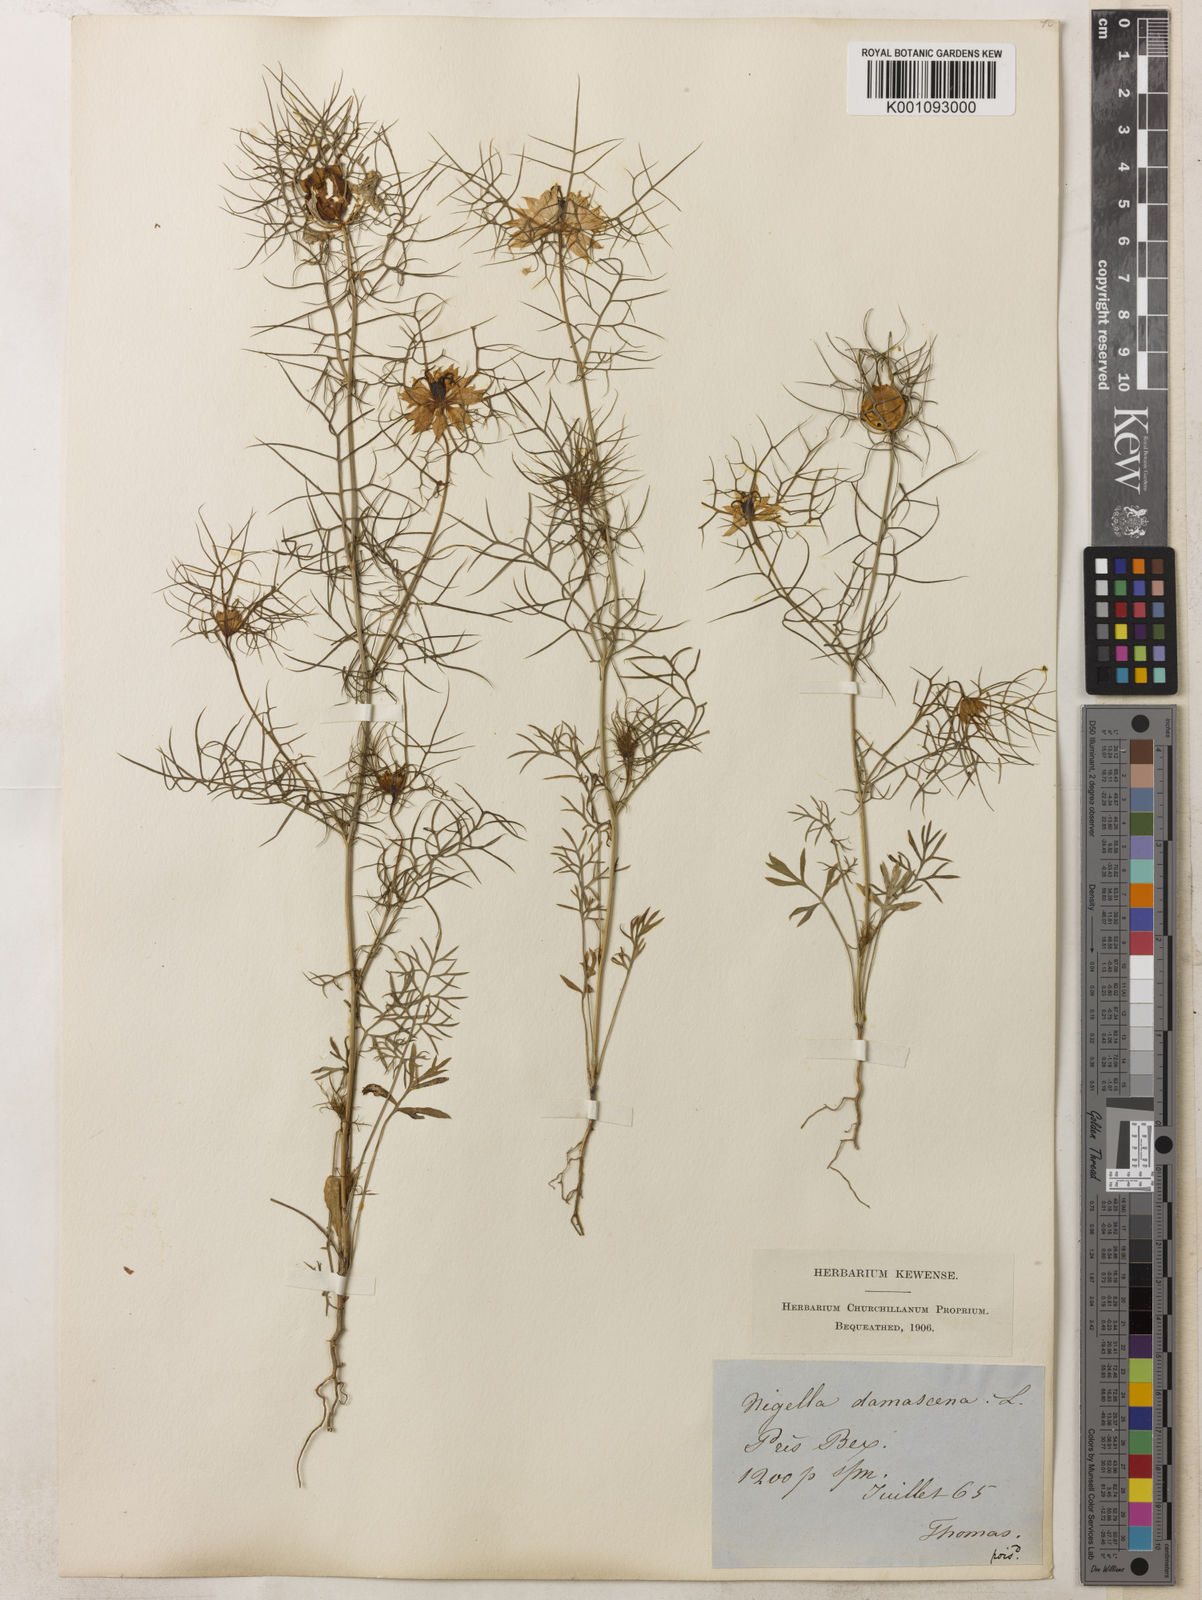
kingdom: Plantae
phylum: Tracheophyta
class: Magnoliopsida
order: Ranunculales
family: Ranunculaceae
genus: Nigella
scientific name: Nigella damascena
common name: Love-in-a-mist
